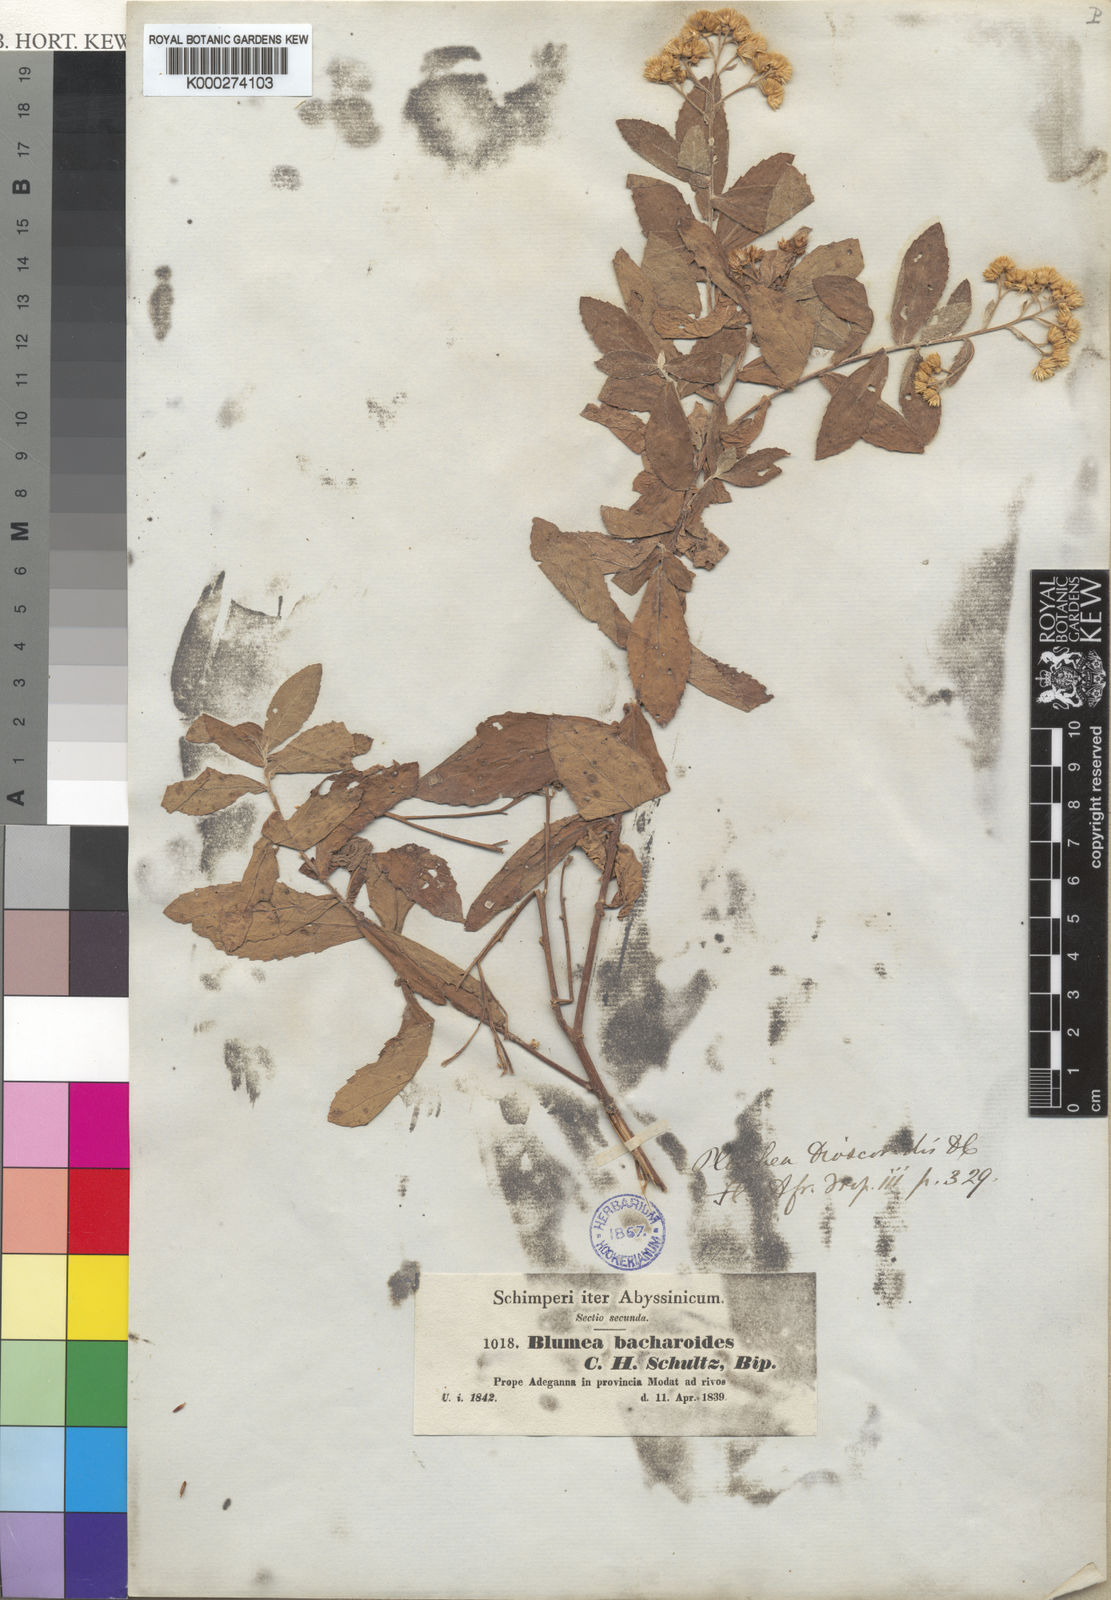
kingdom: Plantae
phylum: Tracheophyta
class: Magnoliopsida
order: Asterales
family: Asteraceae
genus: Pluchea
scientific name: Pluchea dioscoridis
